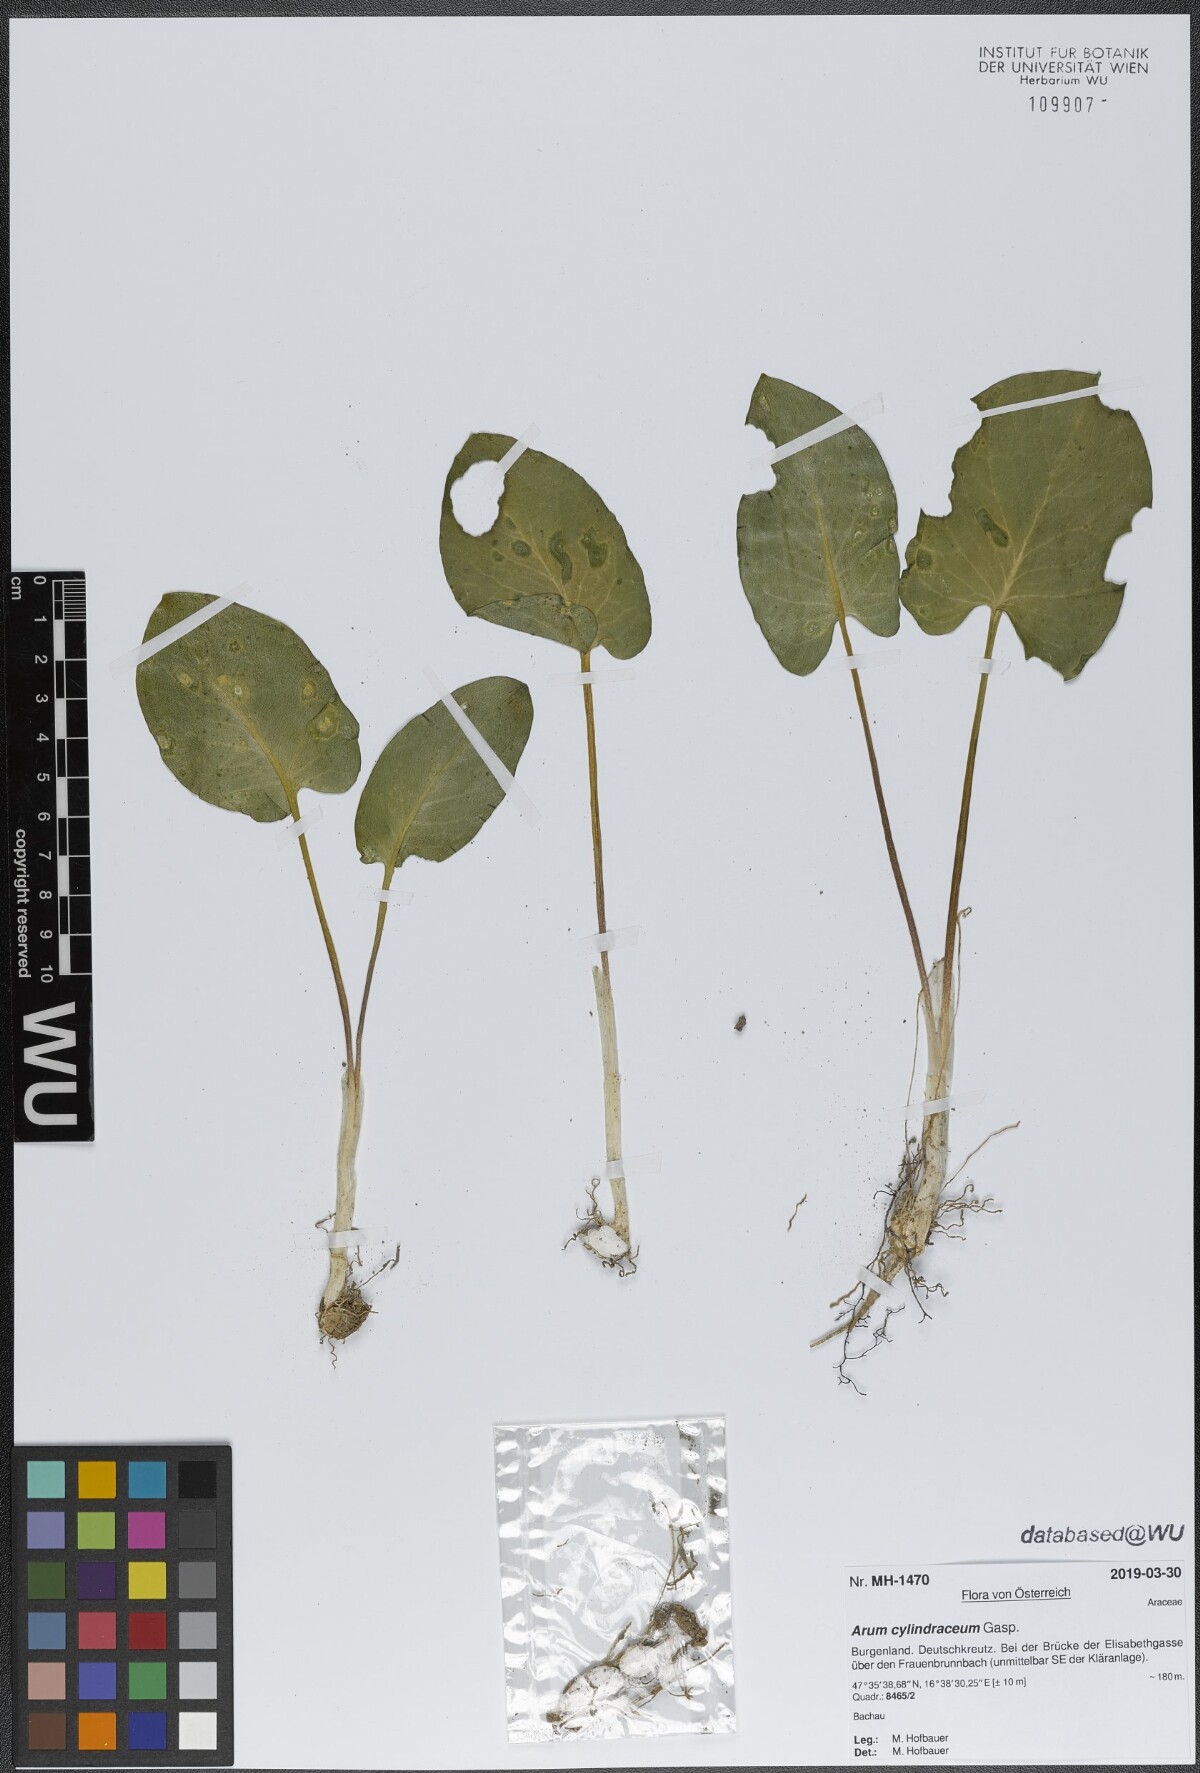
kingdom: Plantae
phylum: Tracheophyta
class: Liliopsida
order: Alismatales
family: Araceae
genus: Arum
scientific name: Arum cylindraceum
